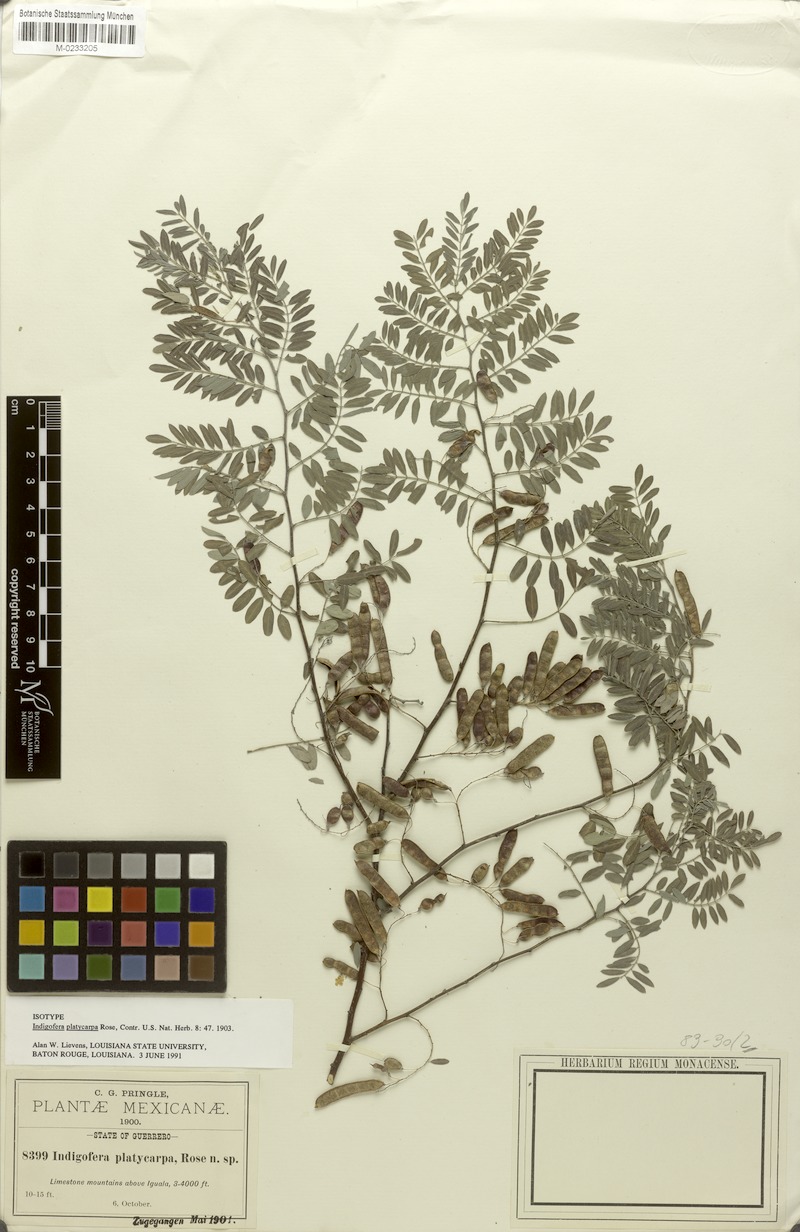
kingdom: Plantae
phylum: Tracheophyta
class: Magnoliopsida
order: Fabales
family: Fabaceae
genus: Indigofera
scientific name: Indigofera platycarpa
